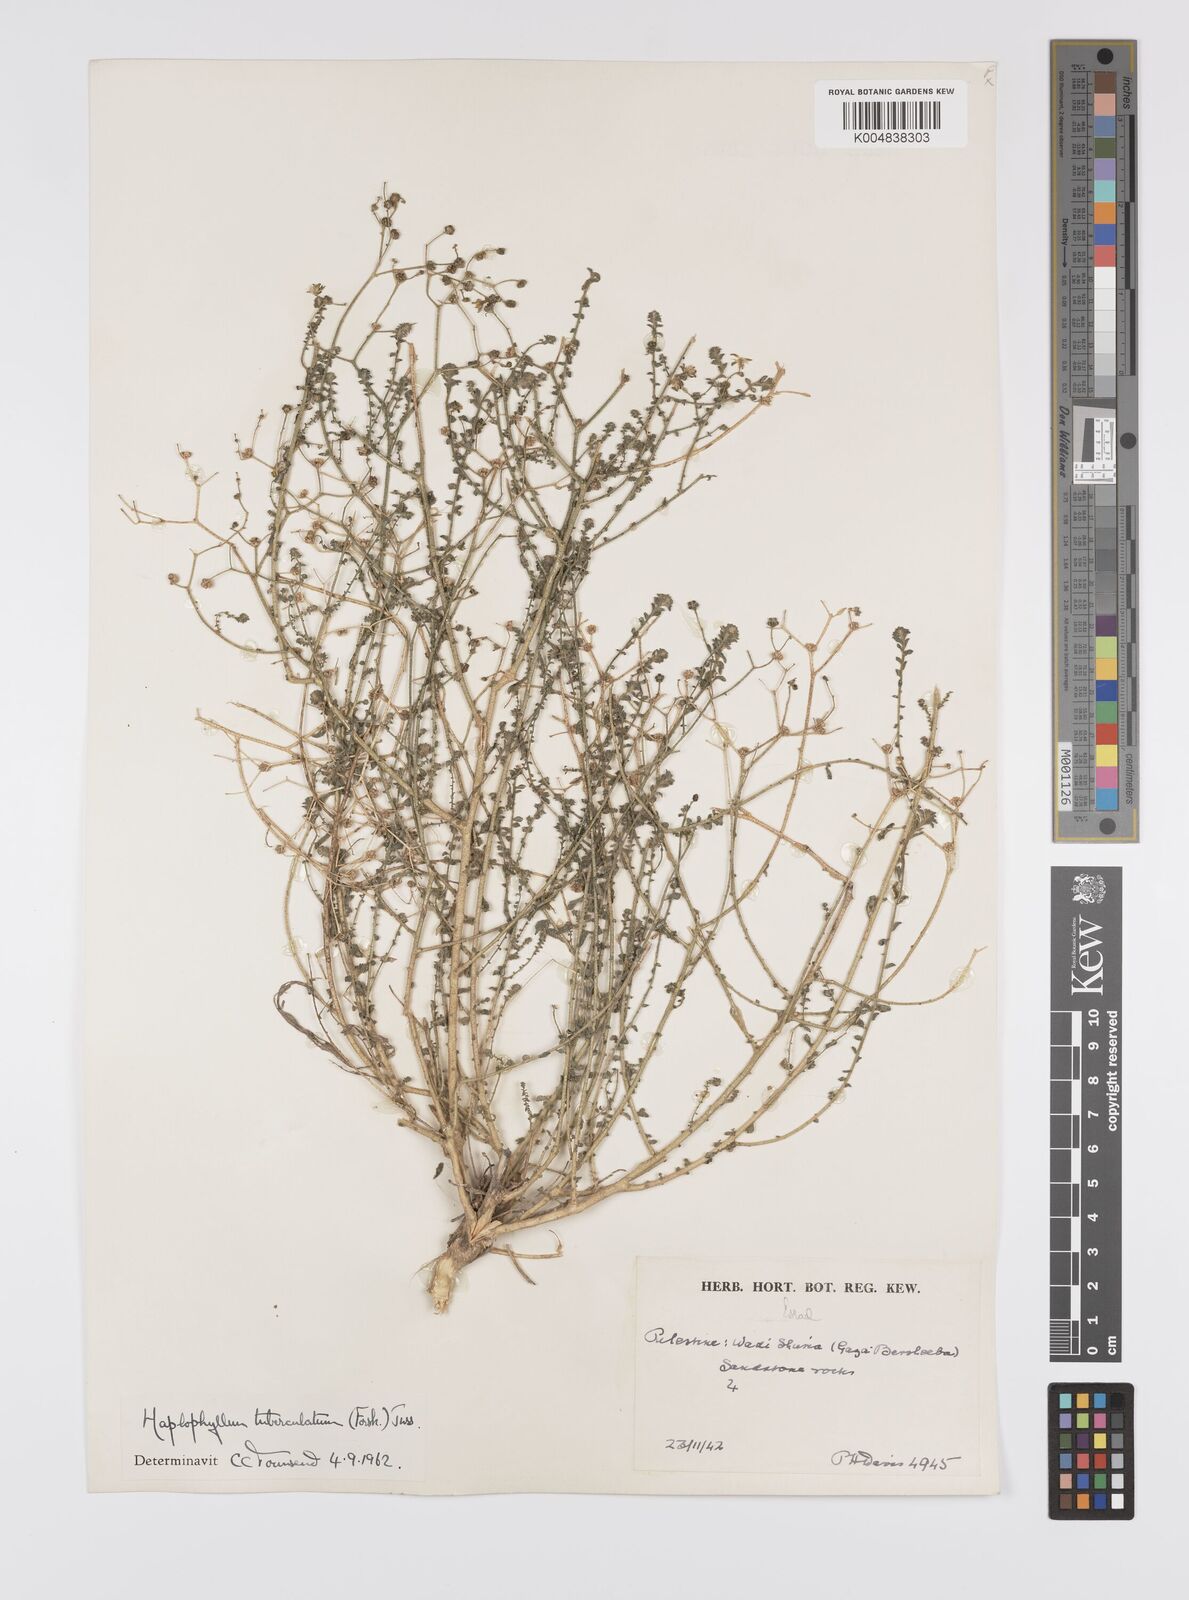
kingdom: Plantae
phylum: Tracheophyta
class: Magnoliopsida
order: Sapindales
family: Rutaceae
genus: Haplophyllum
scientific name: Haplophyllum tuberculatum
